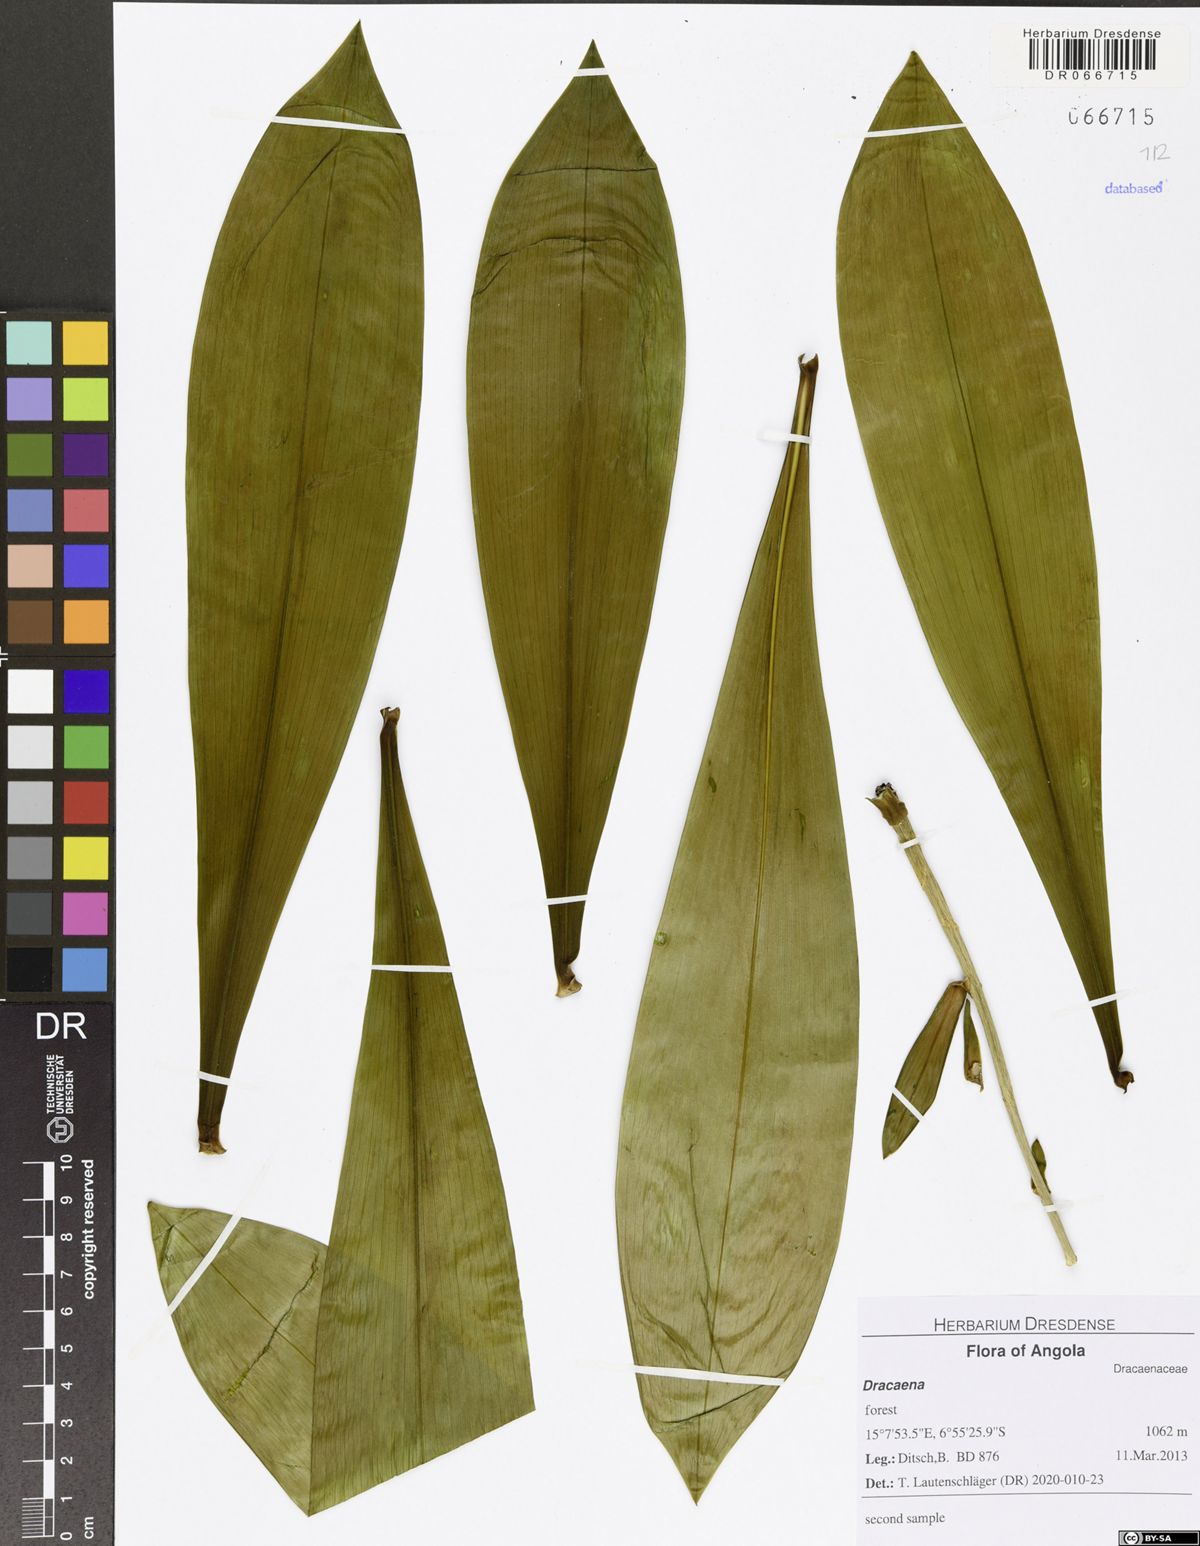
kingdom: Plantae
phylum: Tracheophyta
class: Liliopsida
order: Asparagales
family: Asparagaceae
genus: Dracaena
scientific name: Dracaena
